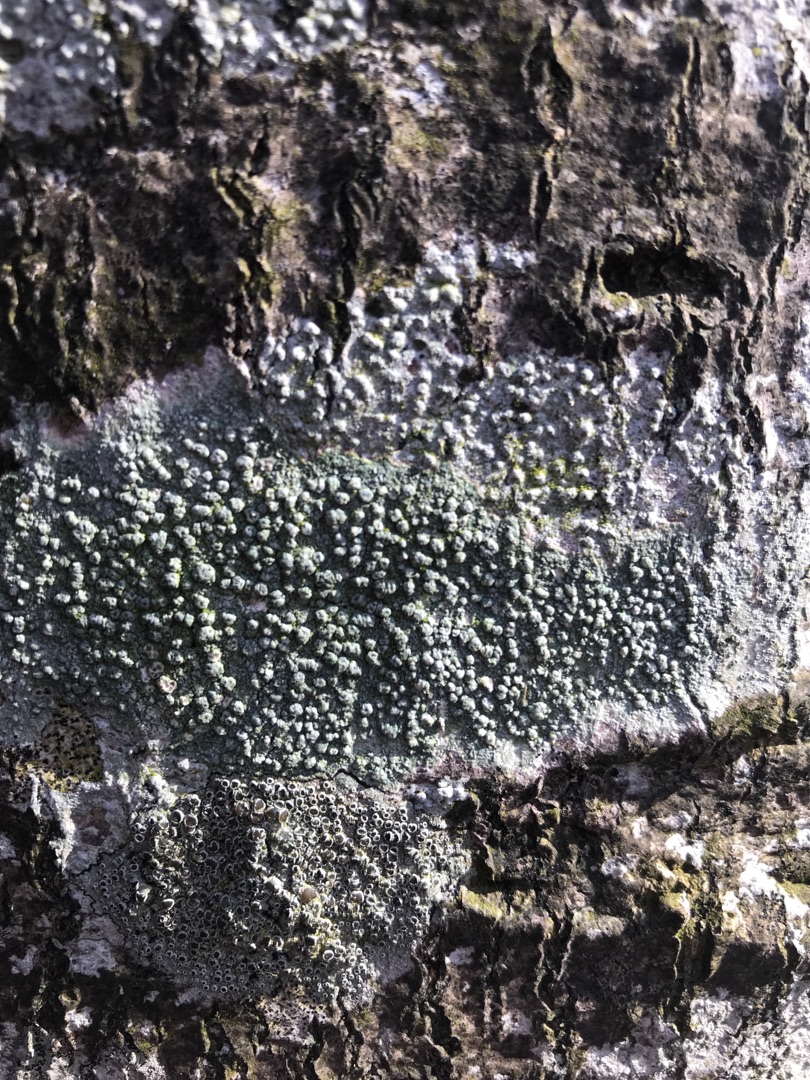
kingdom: Fungi
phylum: Ascomycota
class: Lecanoromycetes
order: Pertusariales
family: Pertusariaceae
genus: Pertusaria
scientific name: Pertusaria pertusa
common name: Almindelig prikvortelav
